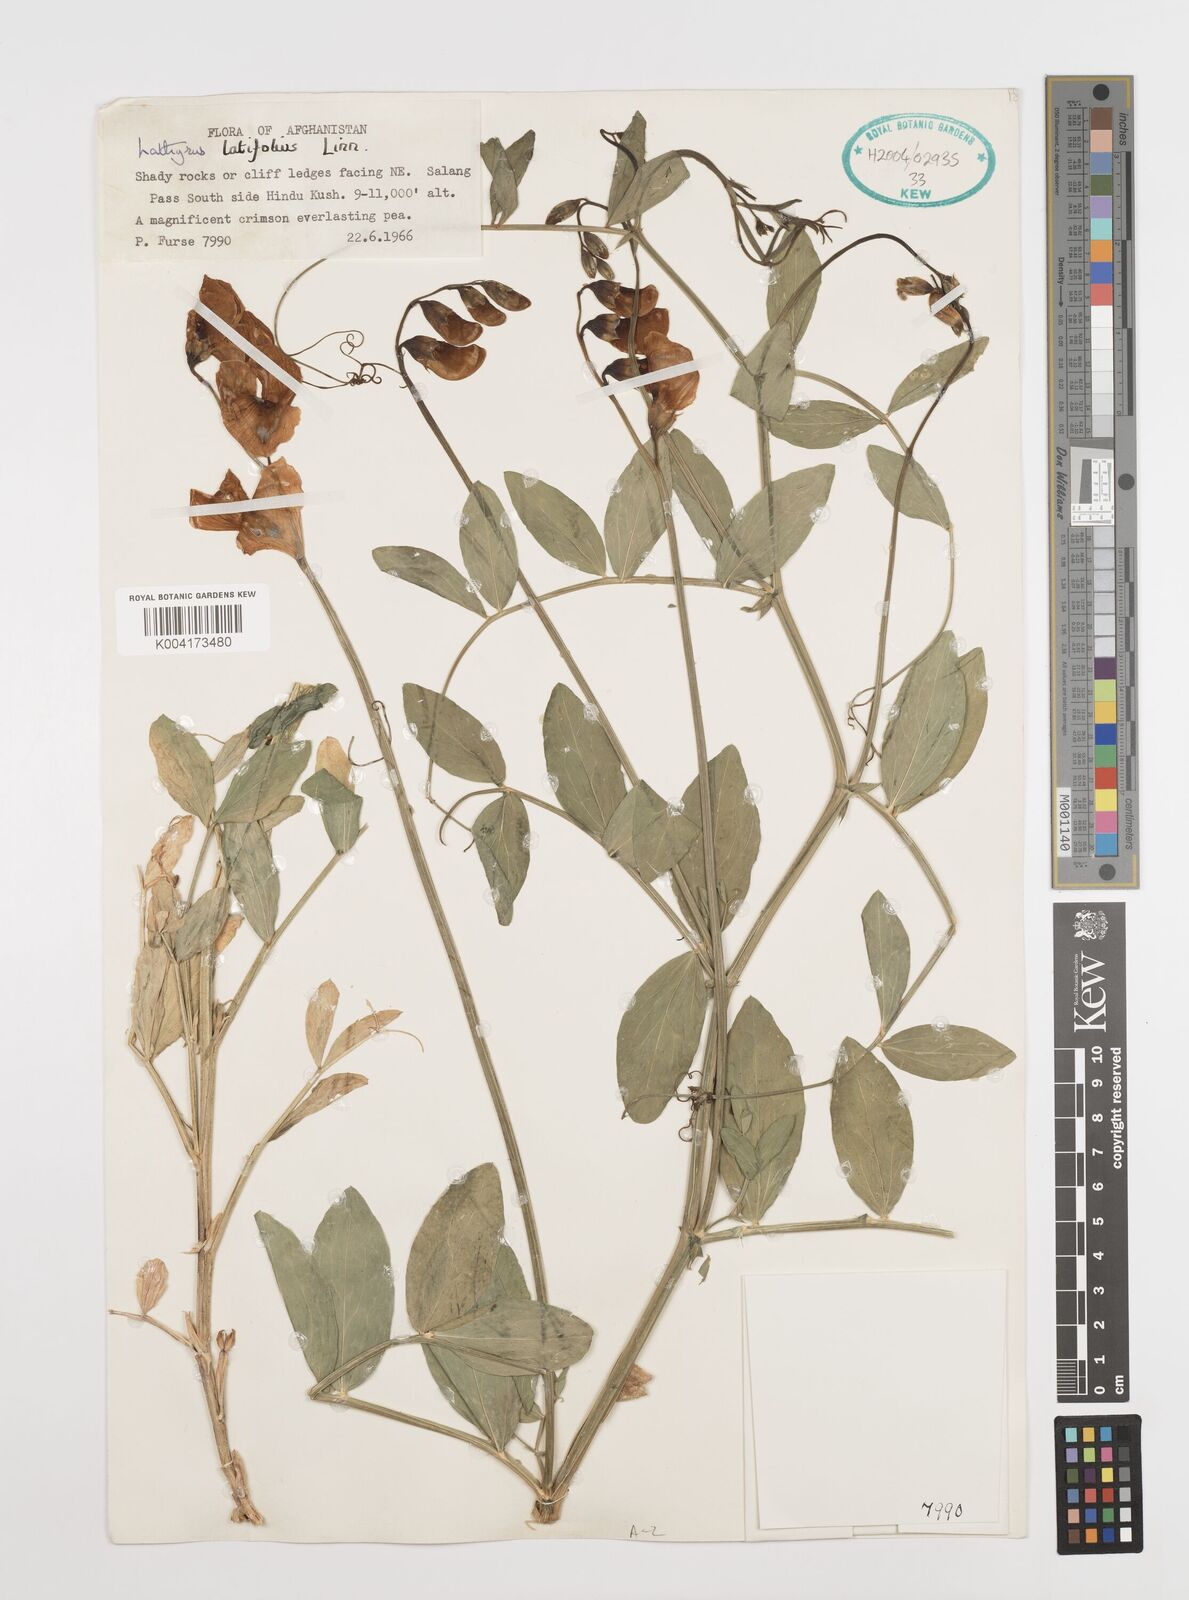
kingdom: Plantae
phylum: Tracheophyta
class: Magnoliopsida
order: Fabales
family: Fabaceae
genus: Lathyrus
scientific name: Lathyrus latifolius
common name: Perennial pea
